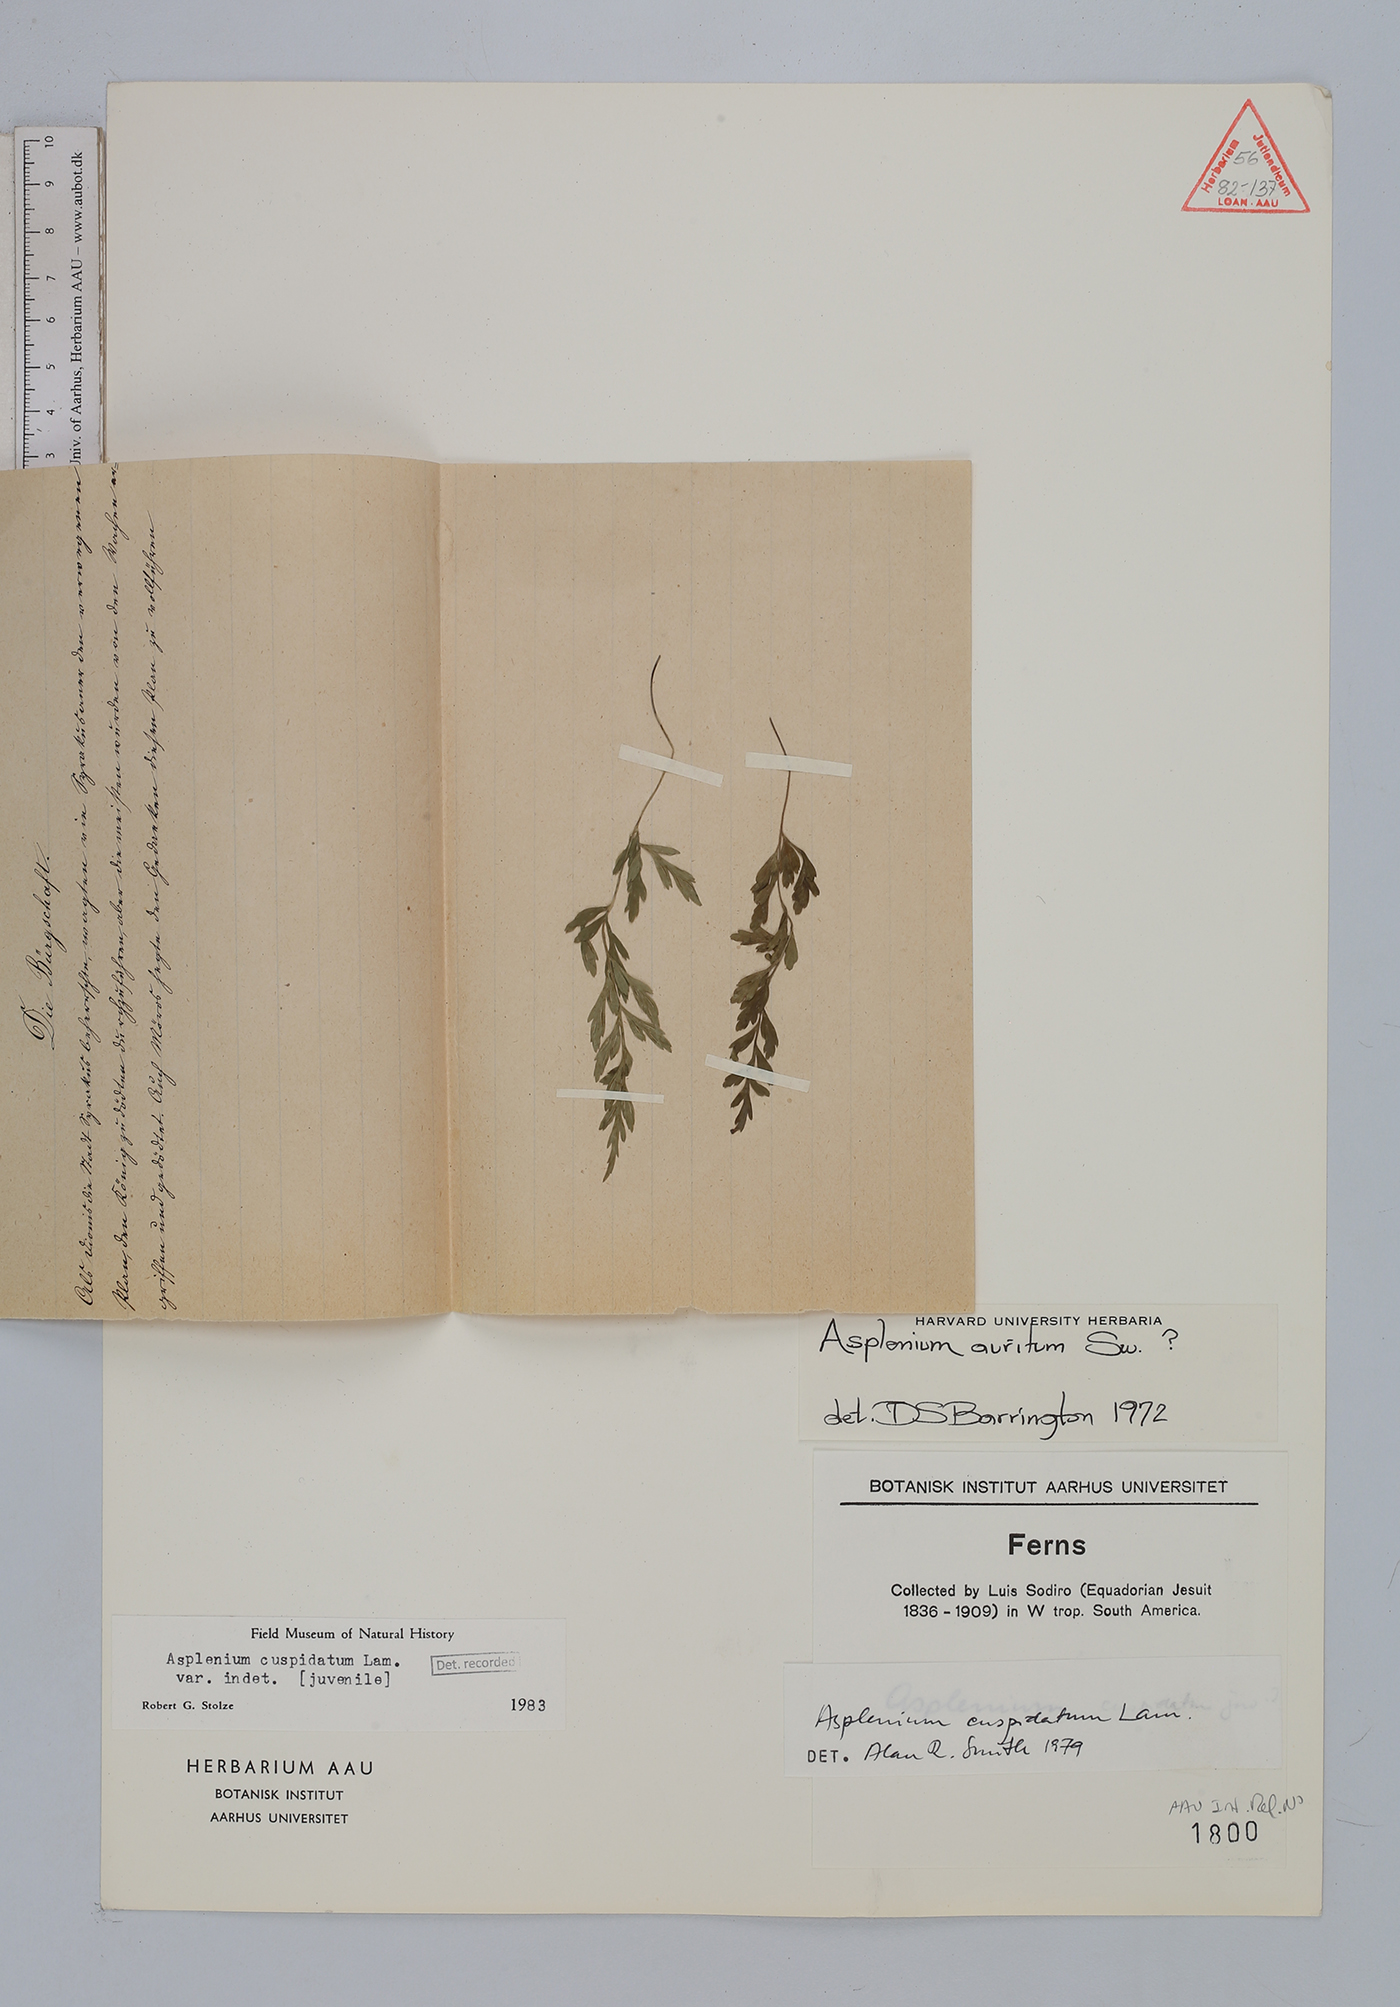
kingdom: Plantae
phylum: Tracheophyta
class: Polypodiopsida
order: Polypodiales
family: Aspleniaceae
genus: Asplenium
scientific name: Asplenium cuspidatum
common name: Eared spleenwort
